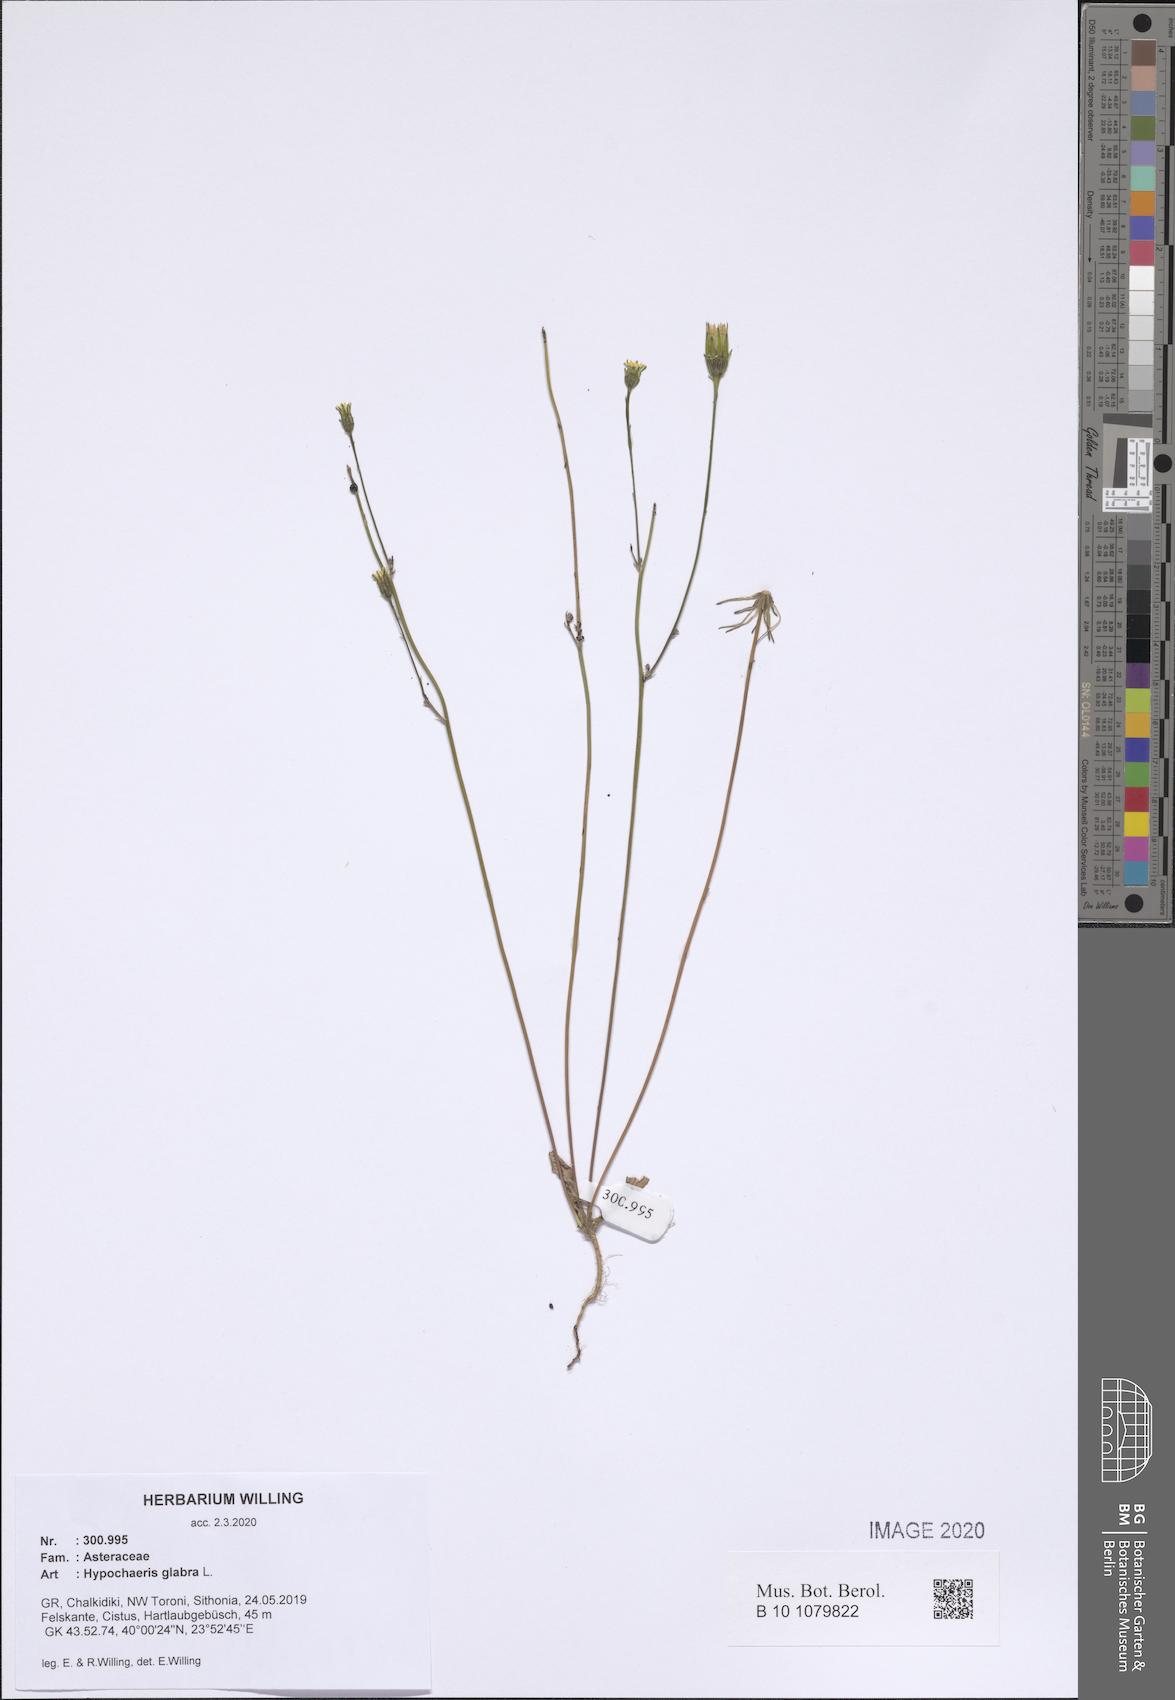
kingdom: Plantae
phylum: Tracheophyta
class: Magnoliopsida
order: Asterales
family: Asteraceae
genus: Hypochaeris
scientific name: Hypochaeris glabra
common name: Smooth catsear
